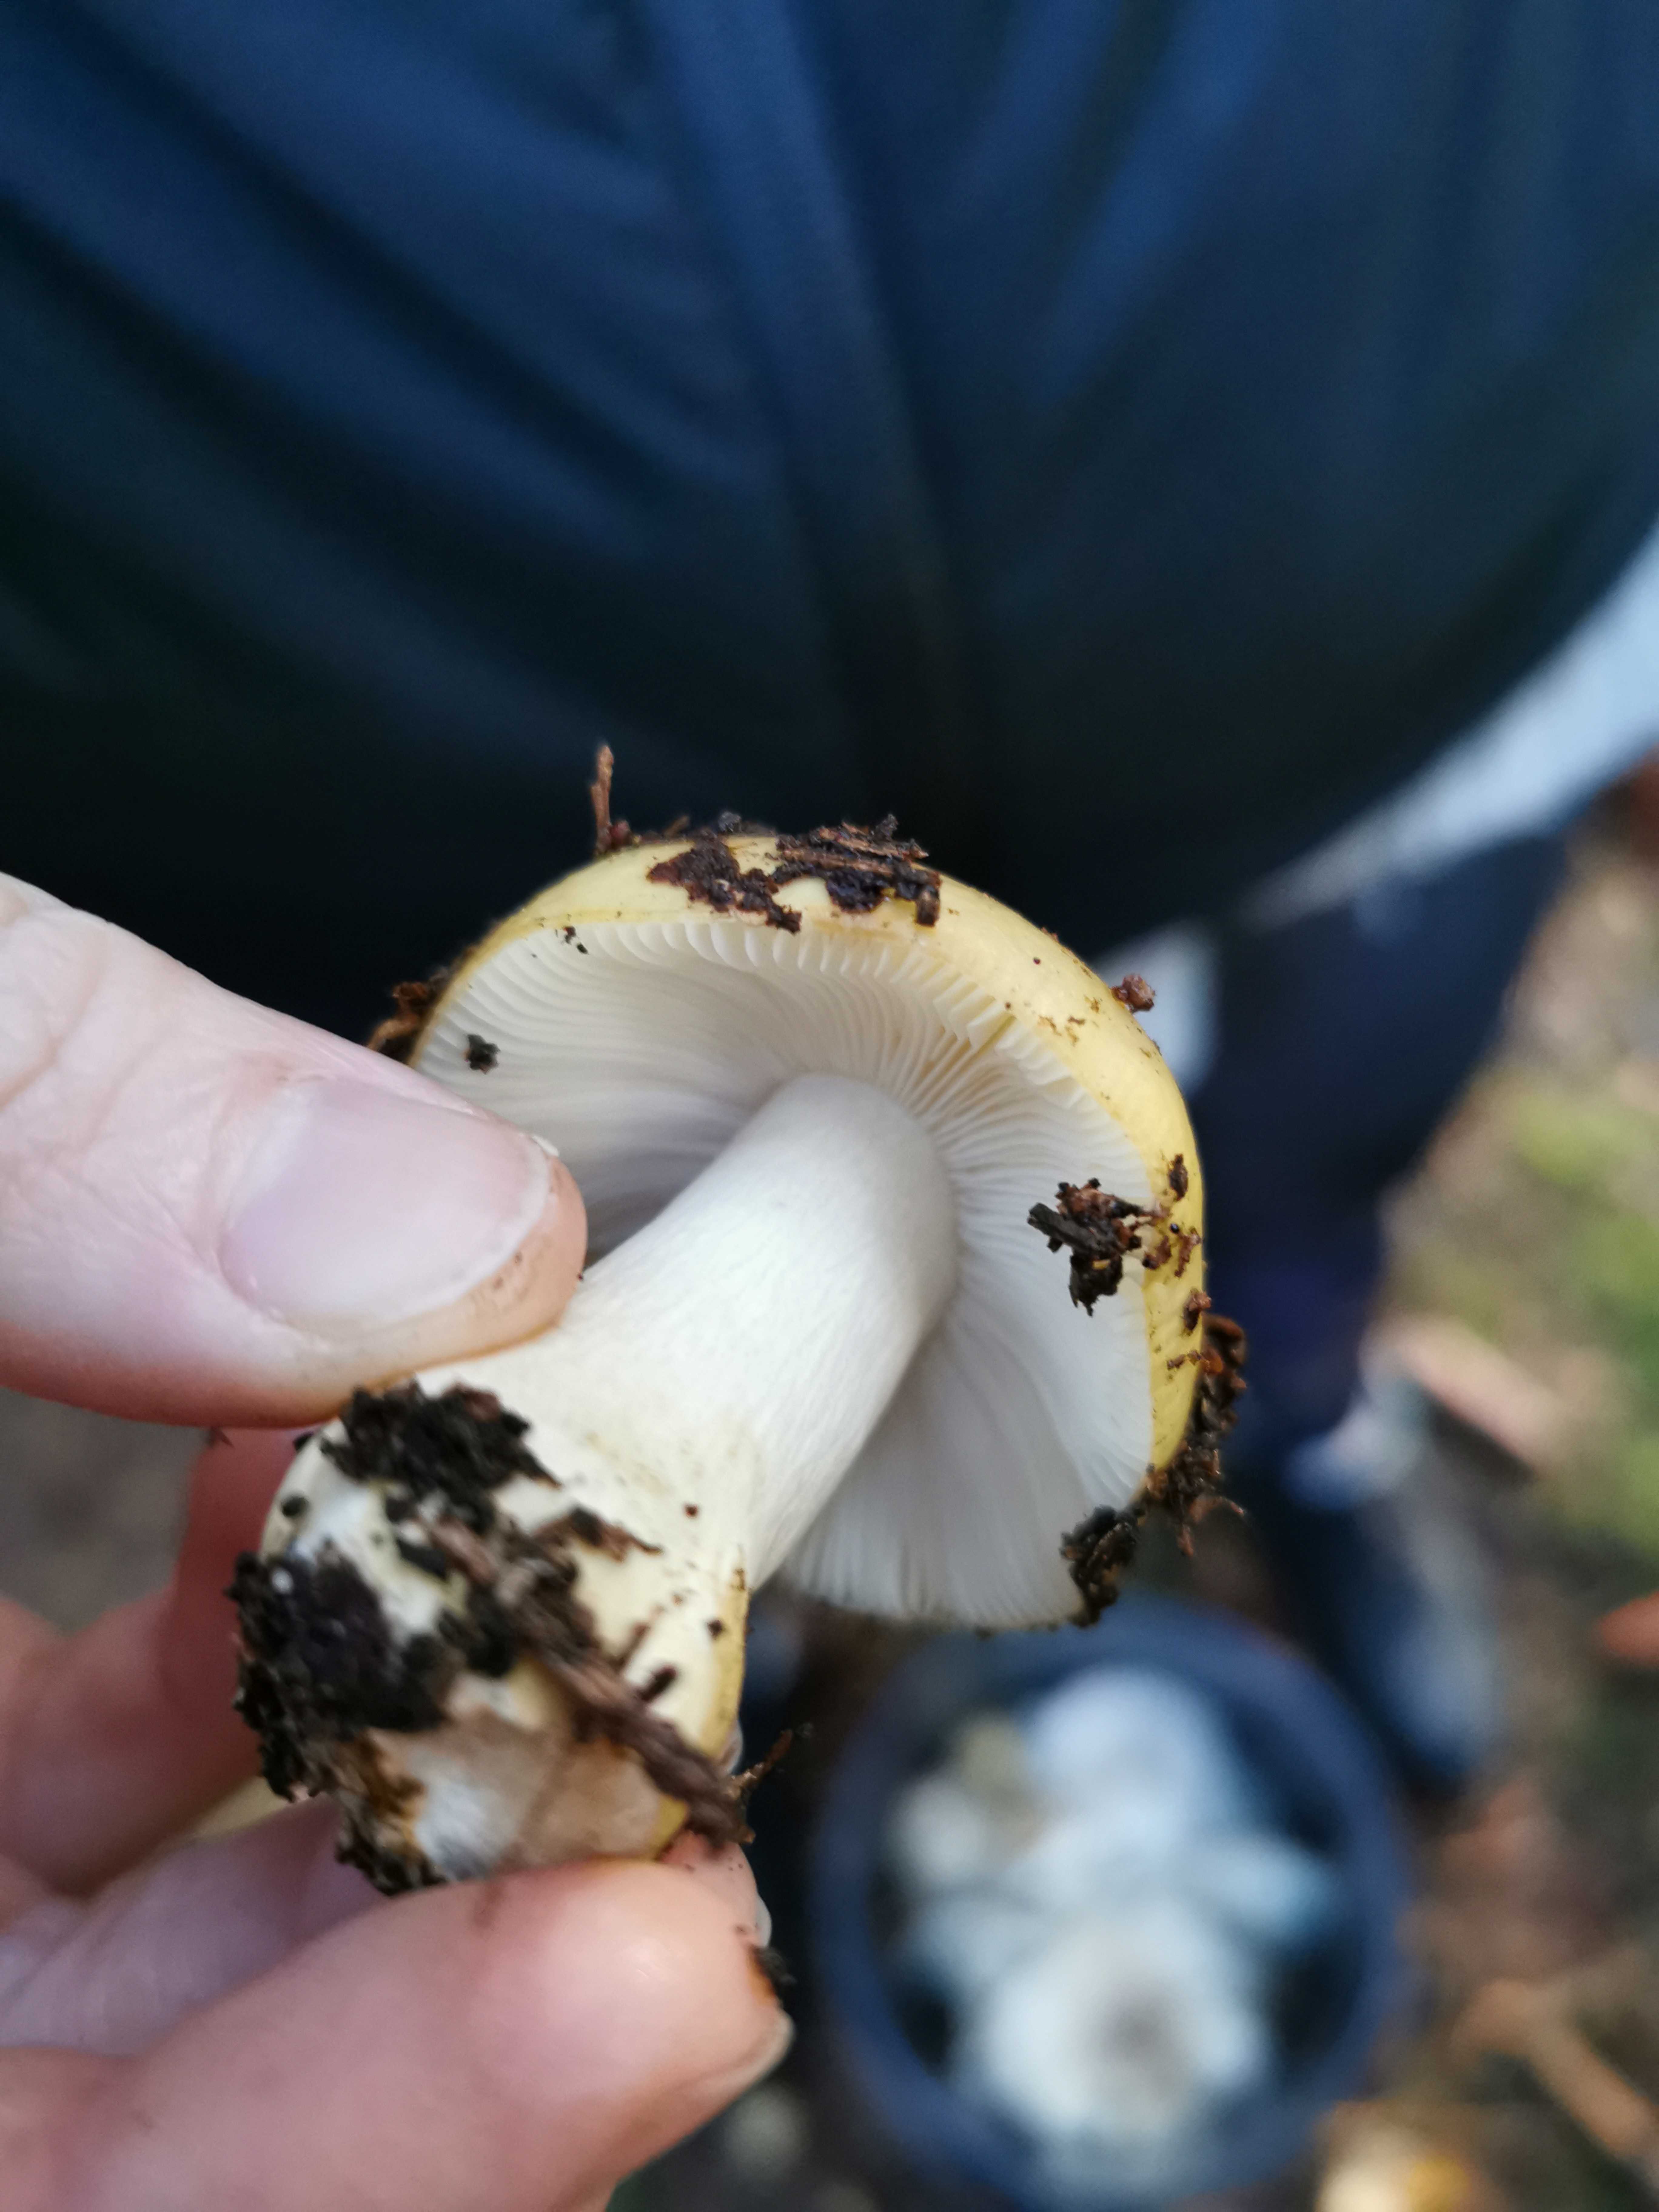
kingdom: Fungi
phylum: Basidiomycota
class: Agaricomycetes
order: Russulales
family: Russulaceae
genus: Russula
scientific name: Russula ochroleuca
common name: okkergul skørhat
